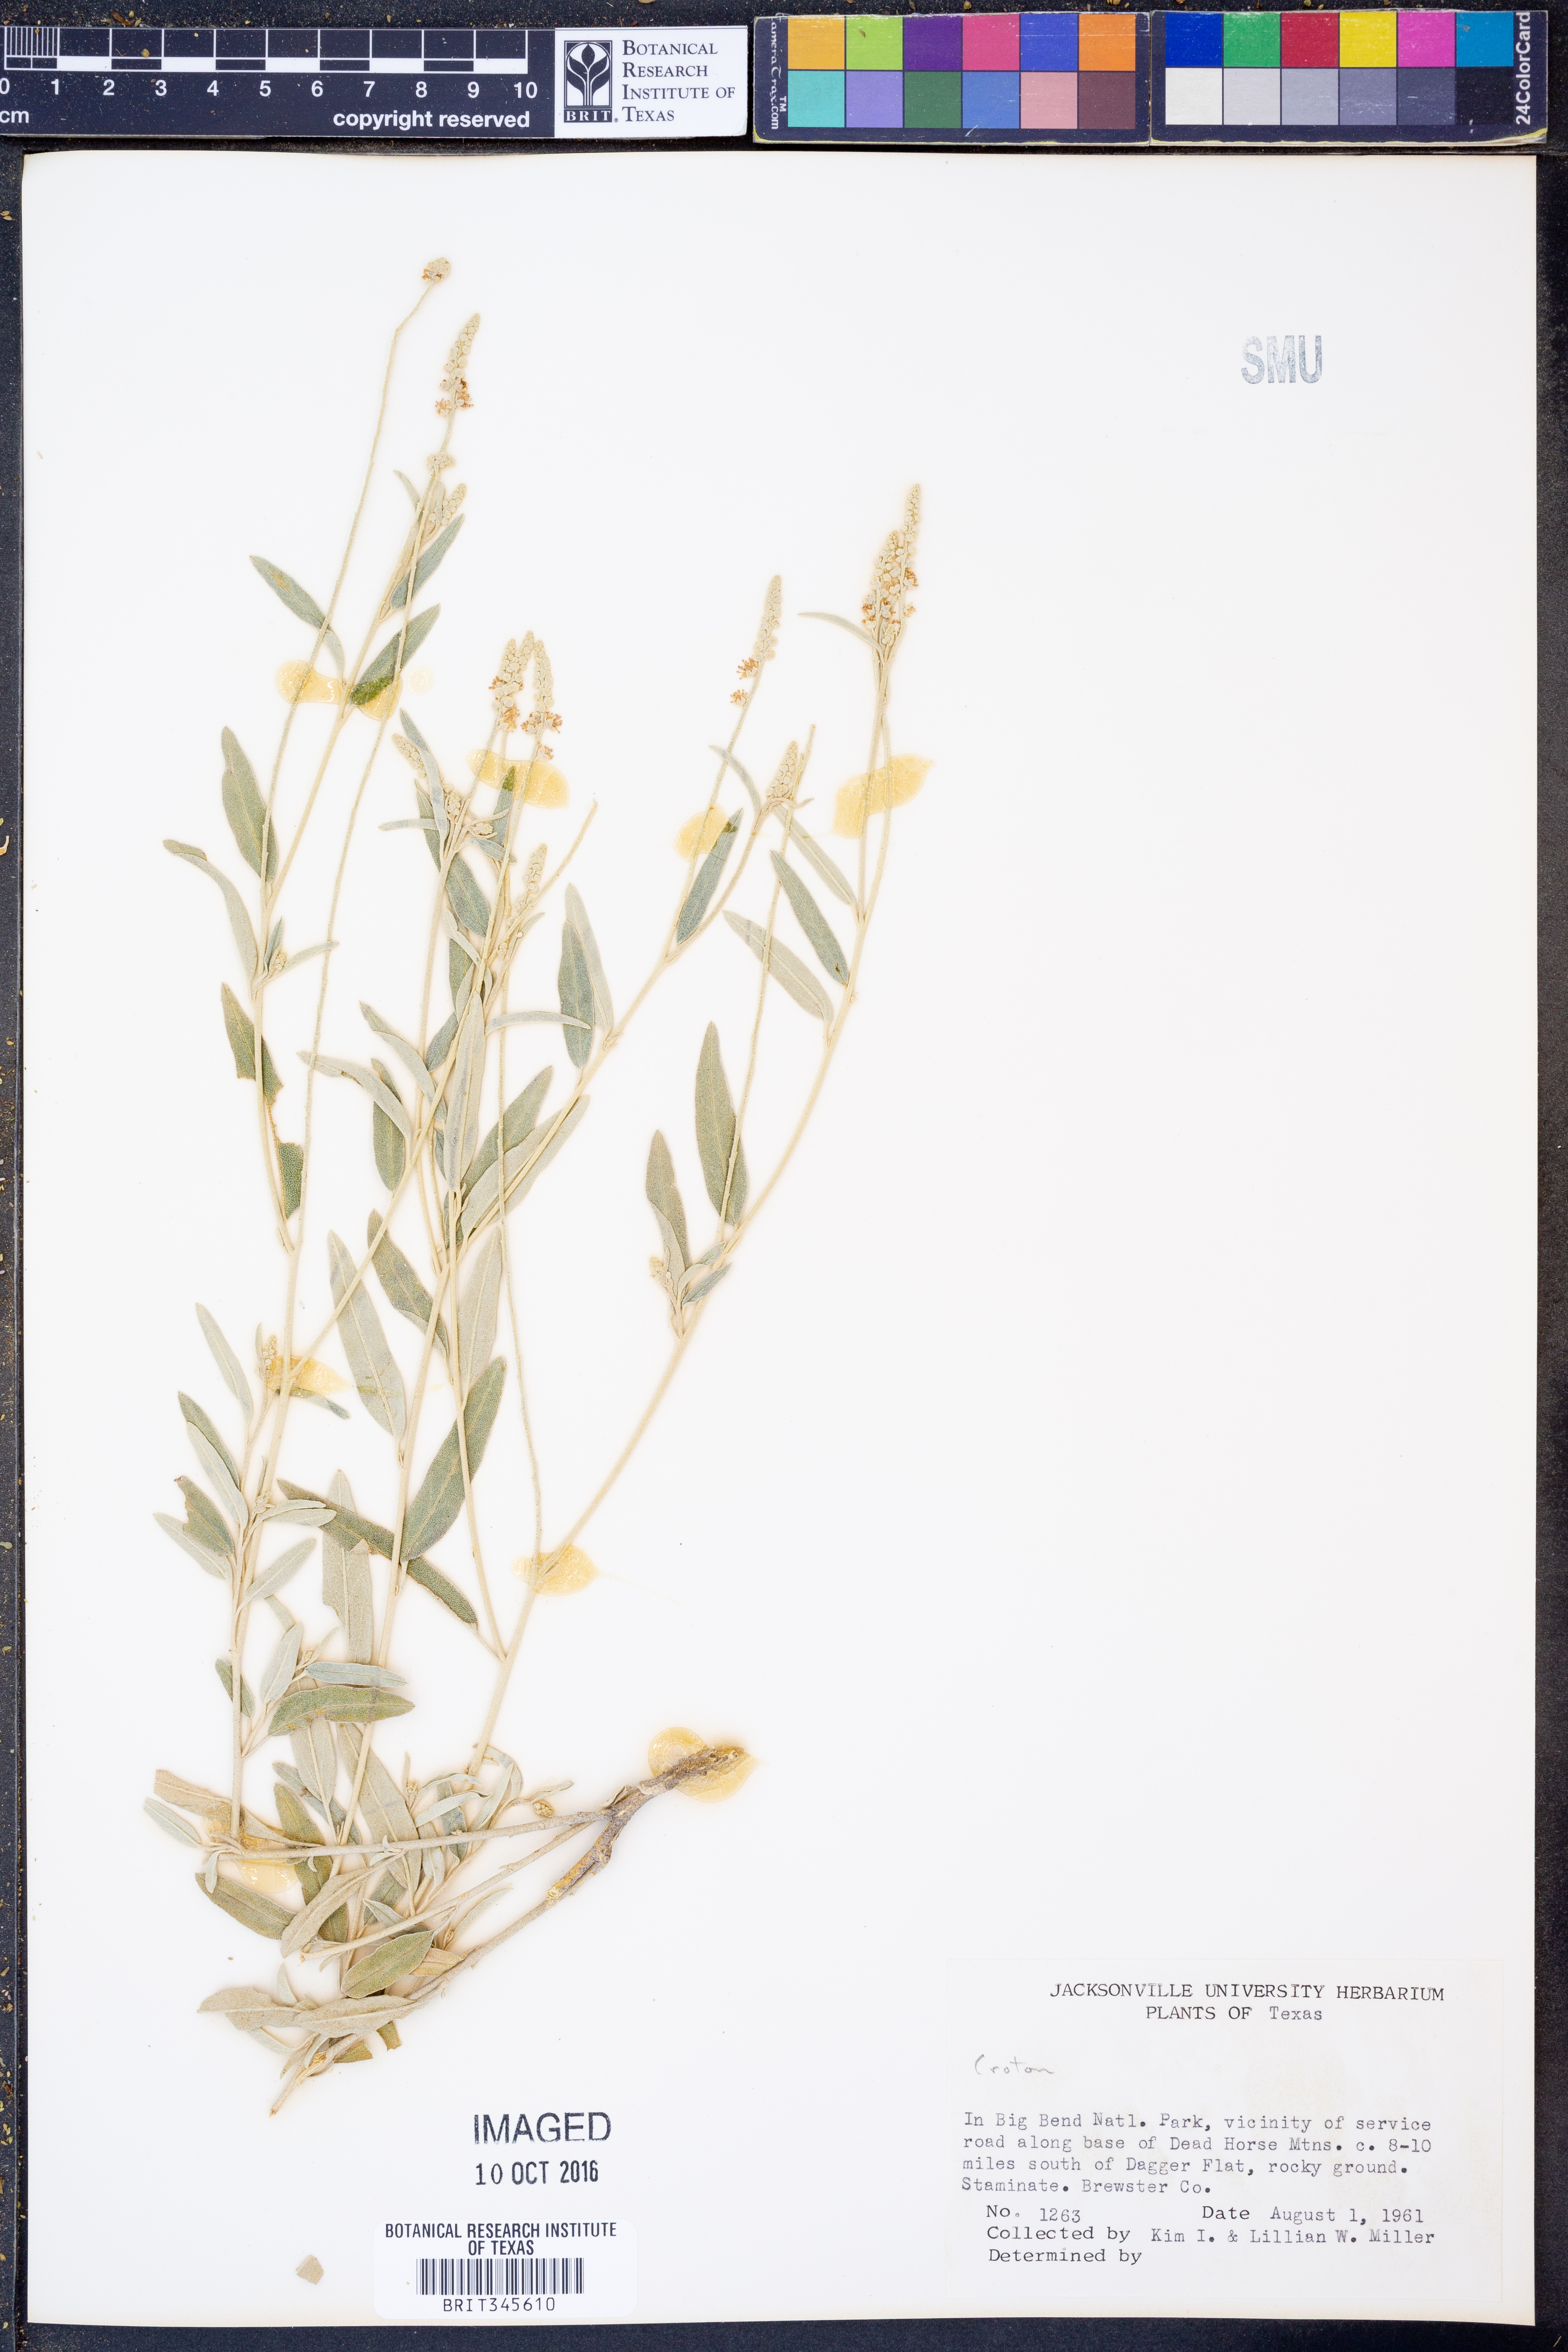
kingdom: Plantae
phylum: Tracheophyta
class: Magnoliopsida
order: Malpighiales
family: Euphorbiaceae
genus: Croton
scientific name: Croton
